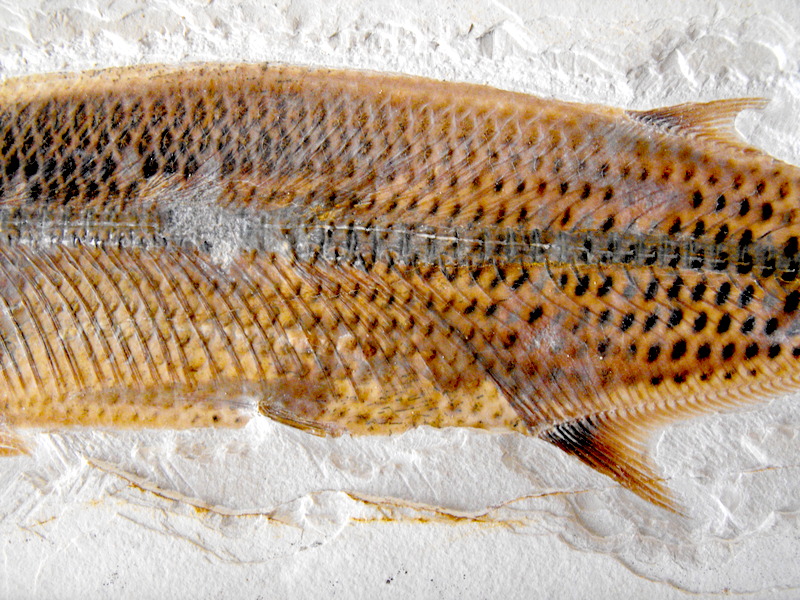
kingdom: Animalia
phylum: Chordata
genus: Thrissops
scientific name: Thrissops formosus
